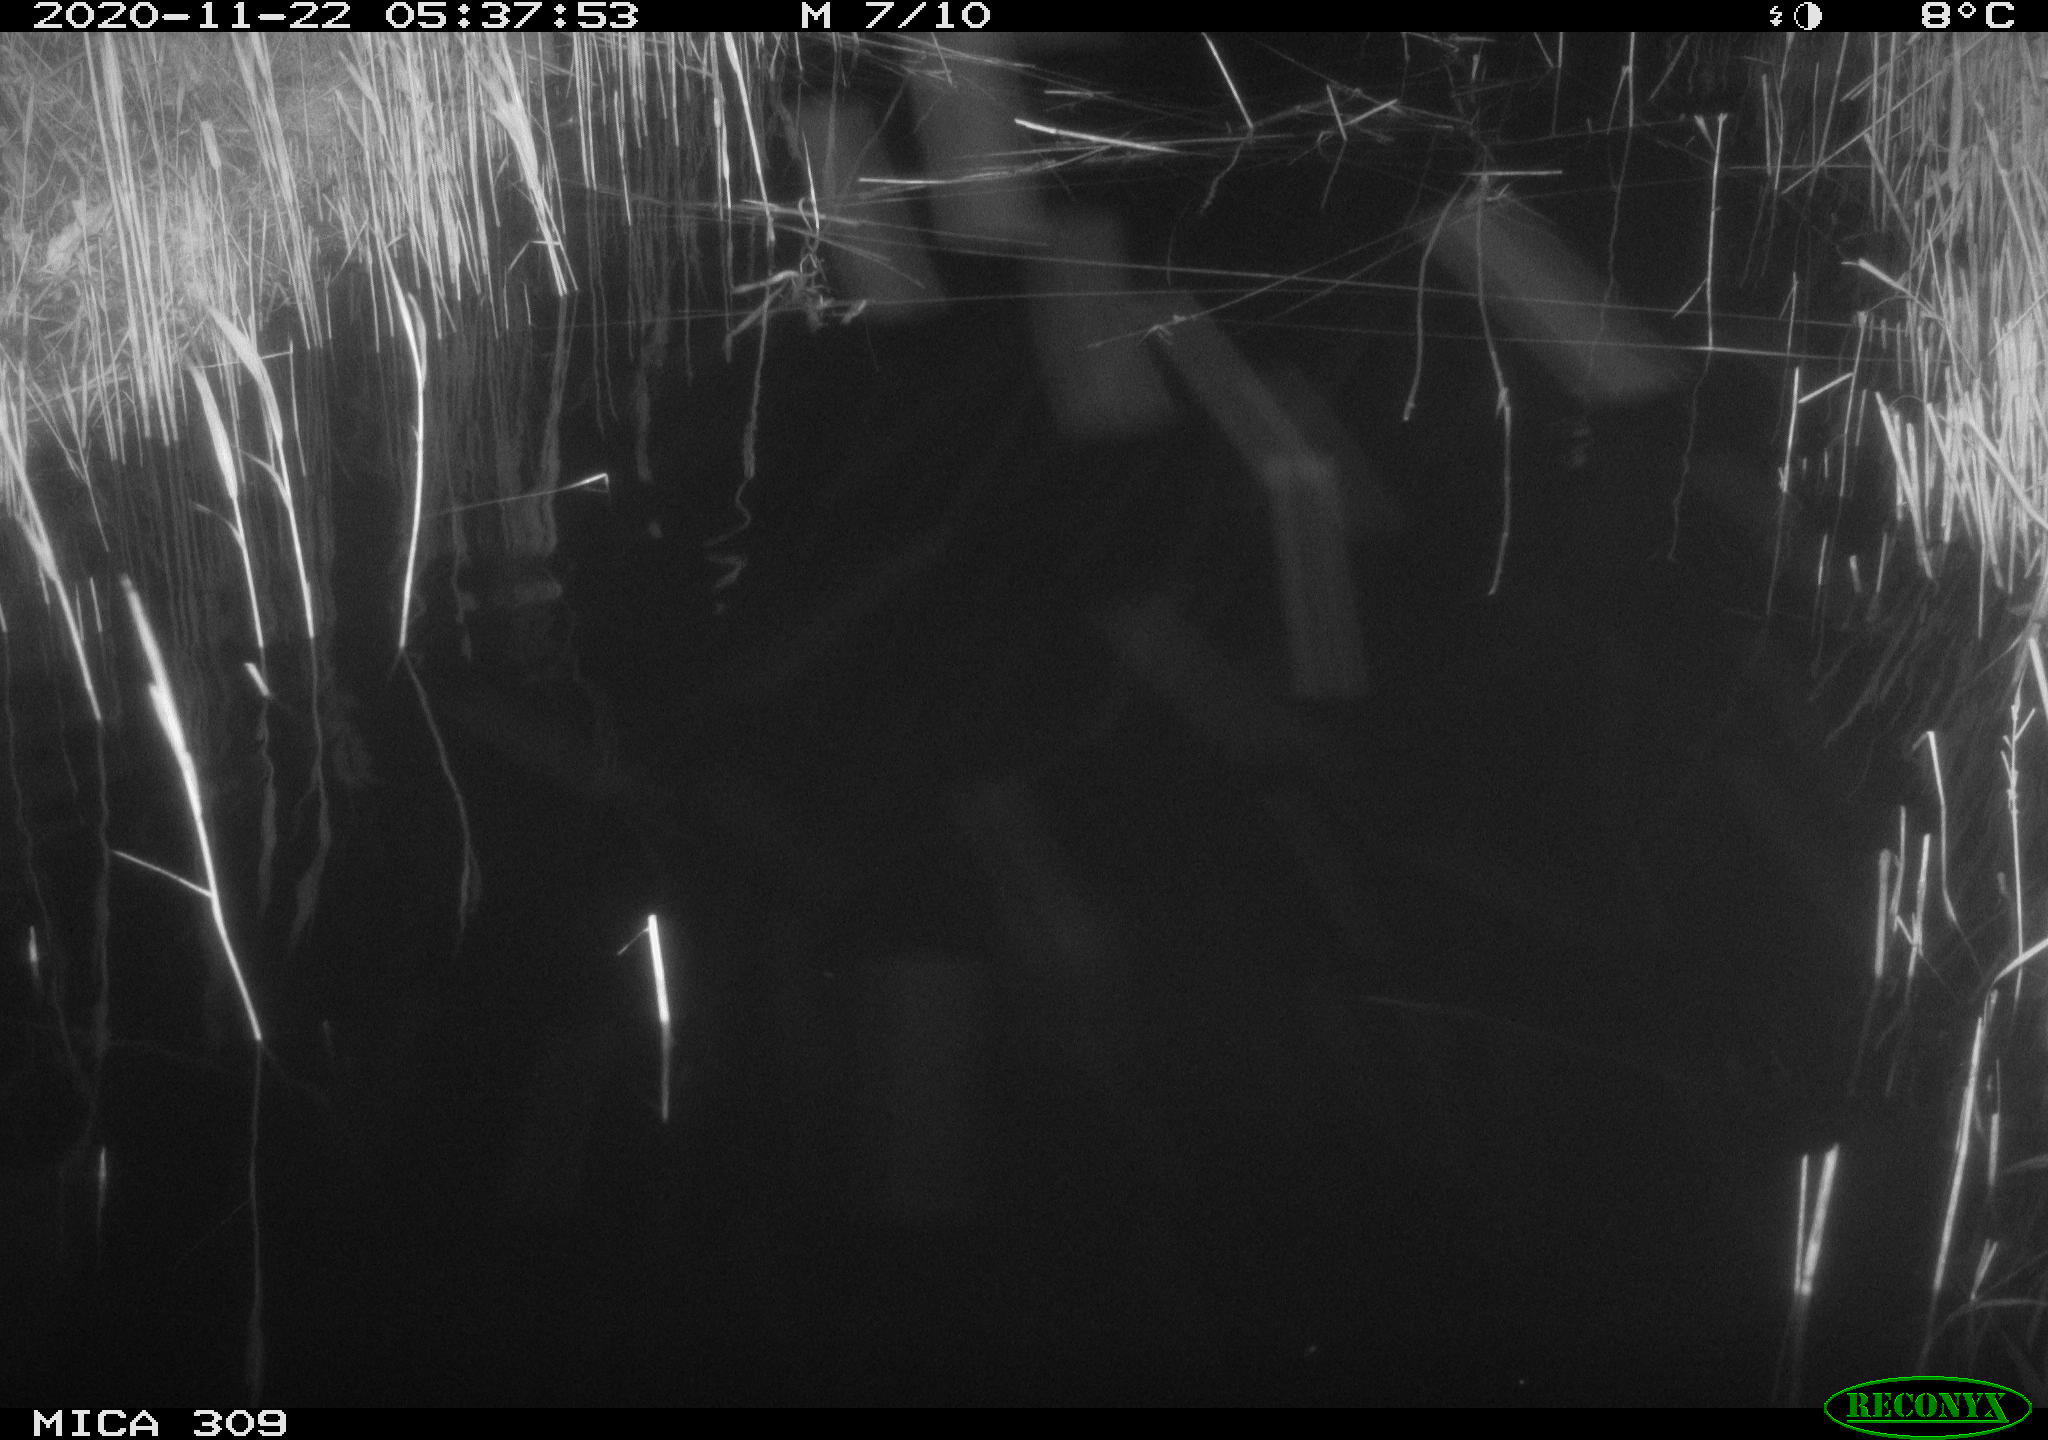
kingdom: Animalia
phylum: Chordata
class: Mammalia
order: Rodentia
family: Muridae
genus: Rattus
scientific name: Rattus norvegicus
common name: Brown rat
